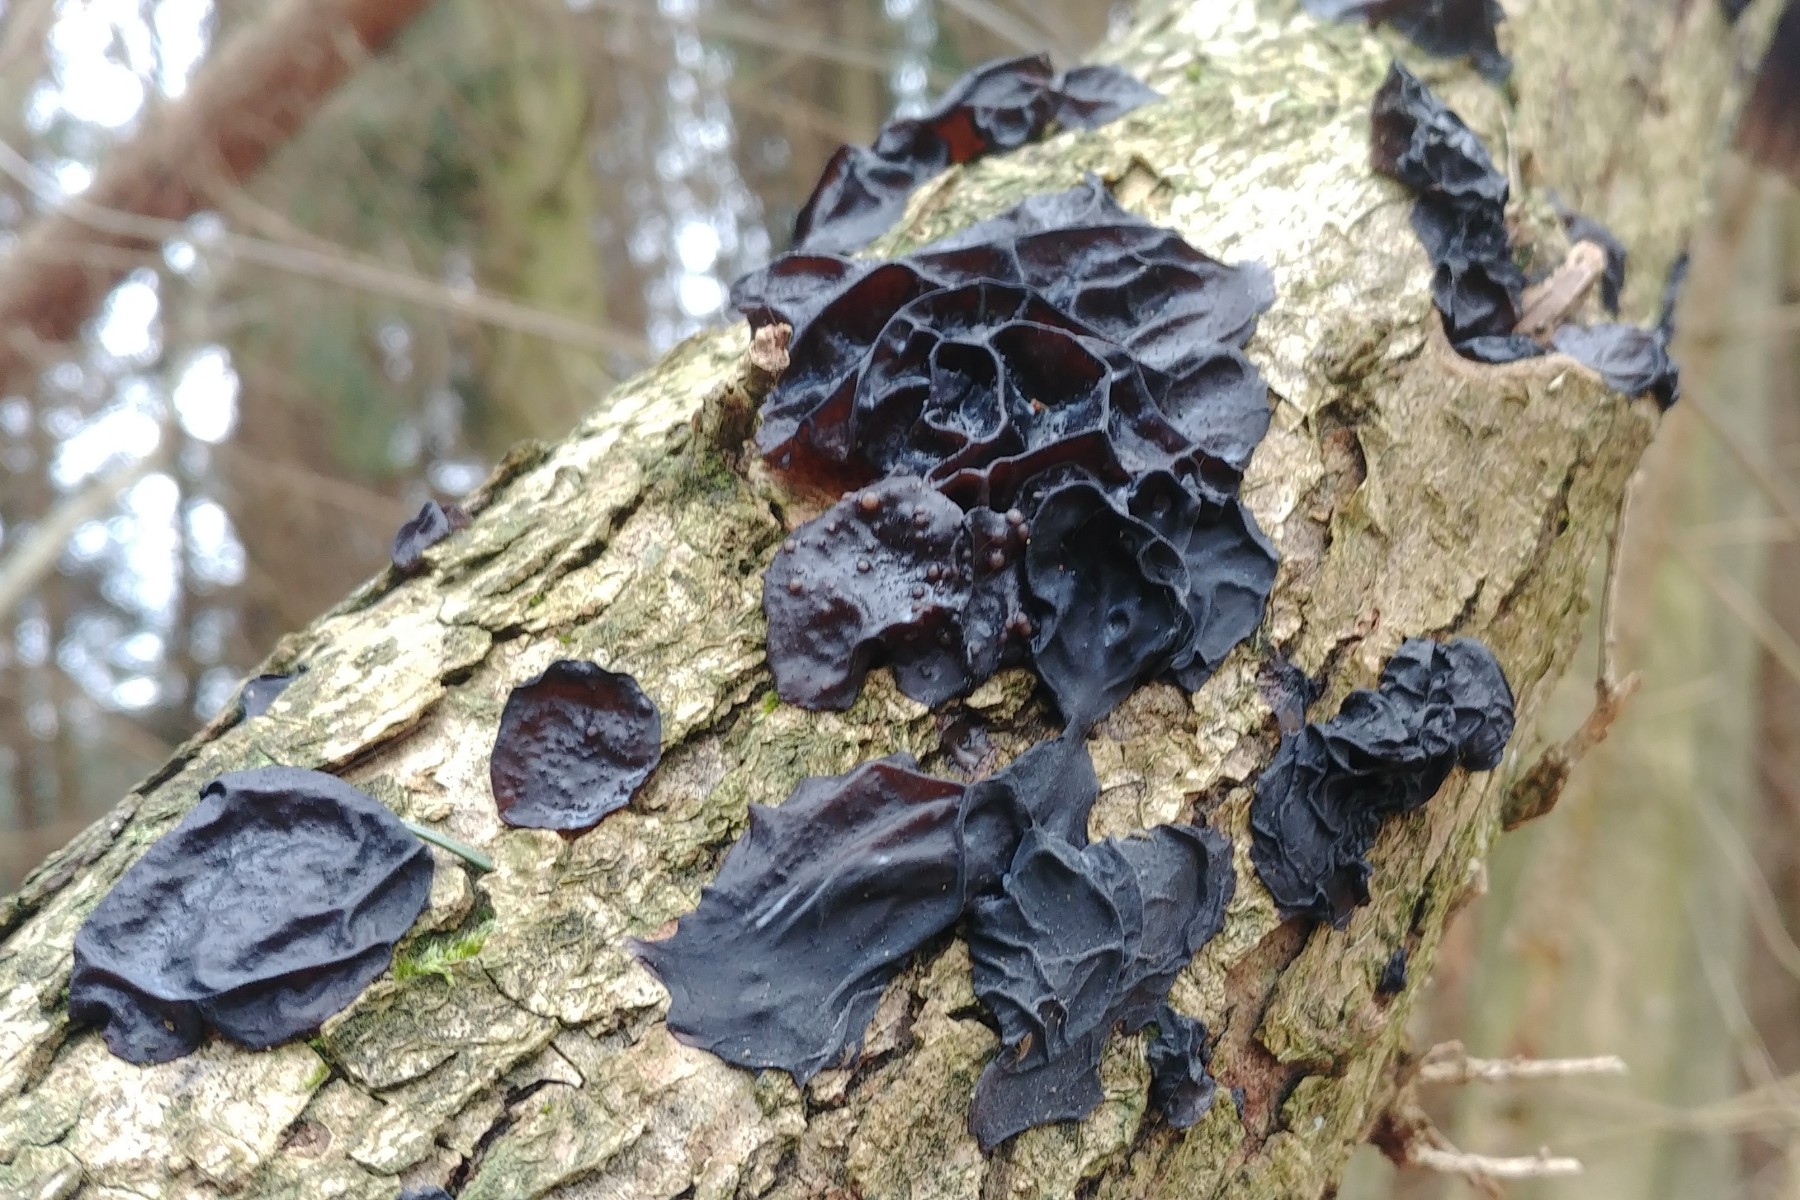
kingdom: Fungi
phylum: Basidiomycota
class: Tremellomycetes
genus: Heteromycophaga
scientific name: Heteromycophaga glandulosae
